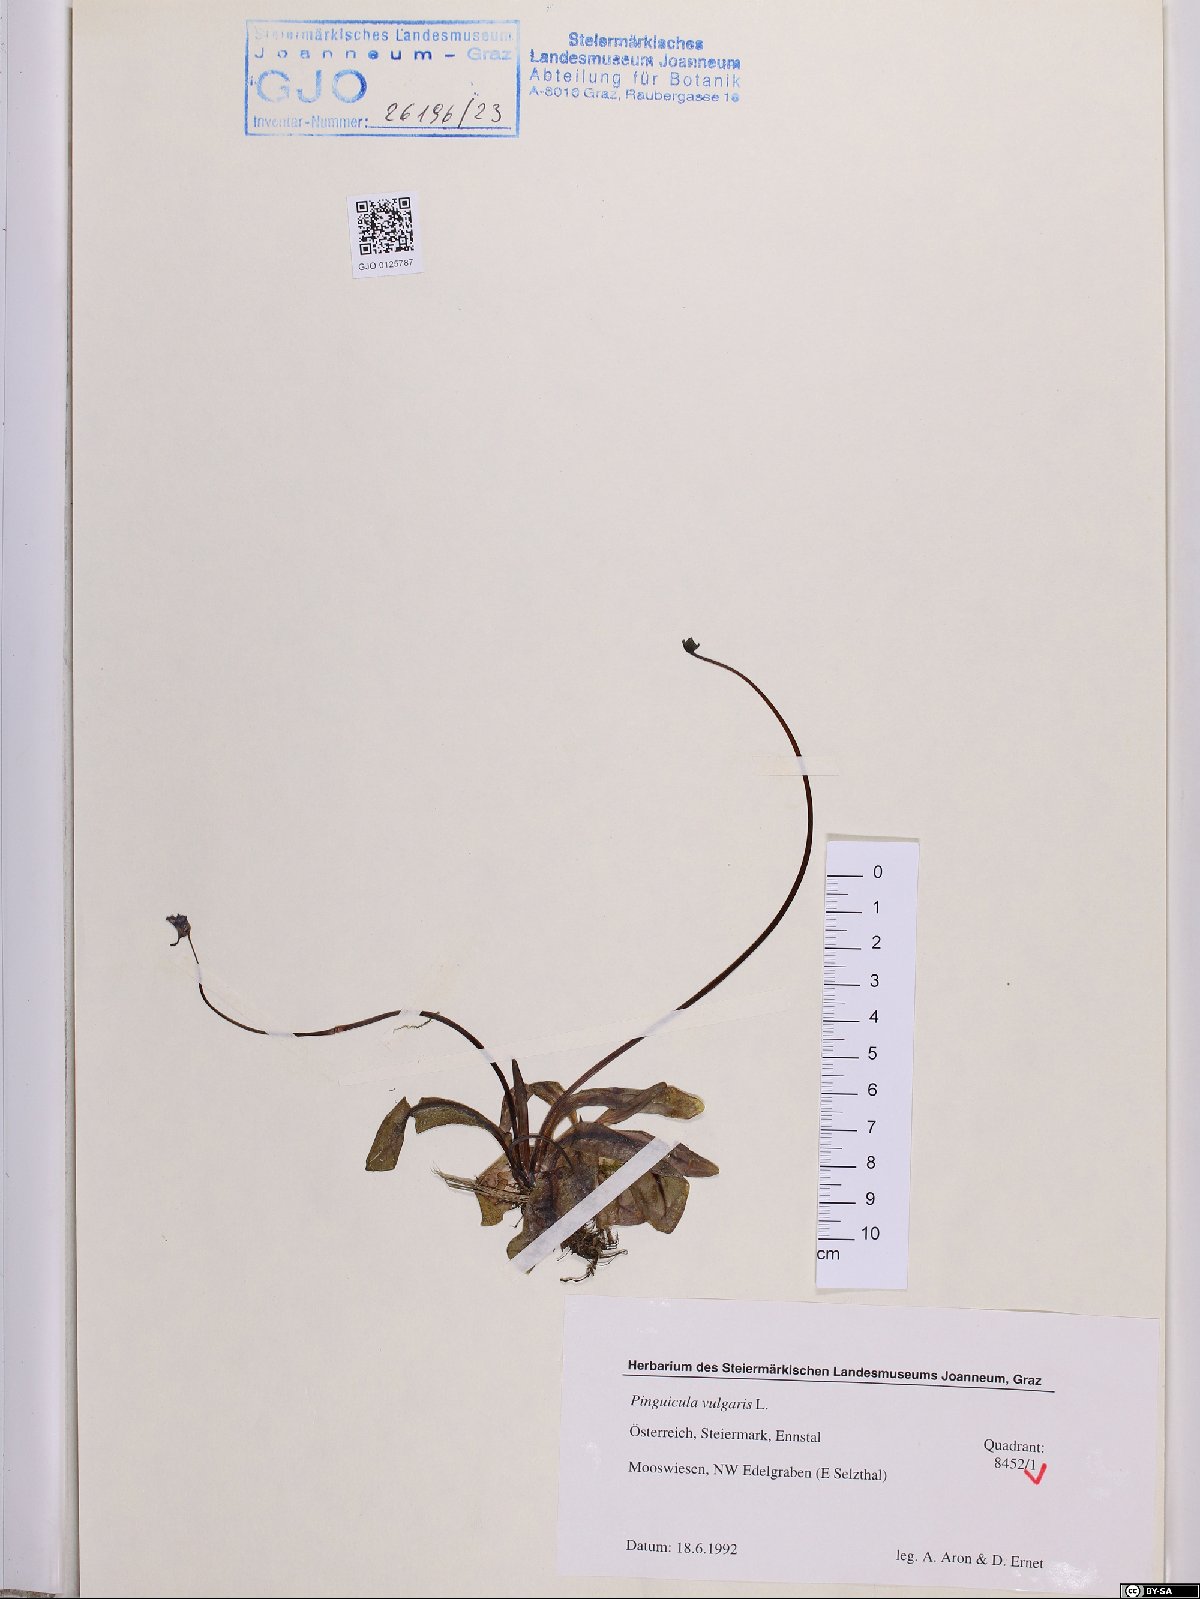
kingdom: Plantae
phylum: Tracheophyta
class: Magnoliopsida
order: Lamiales
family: Lentibulariaceae
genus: Pinguicula
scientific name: Pinguicula vulgaris
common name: Common butterwort
